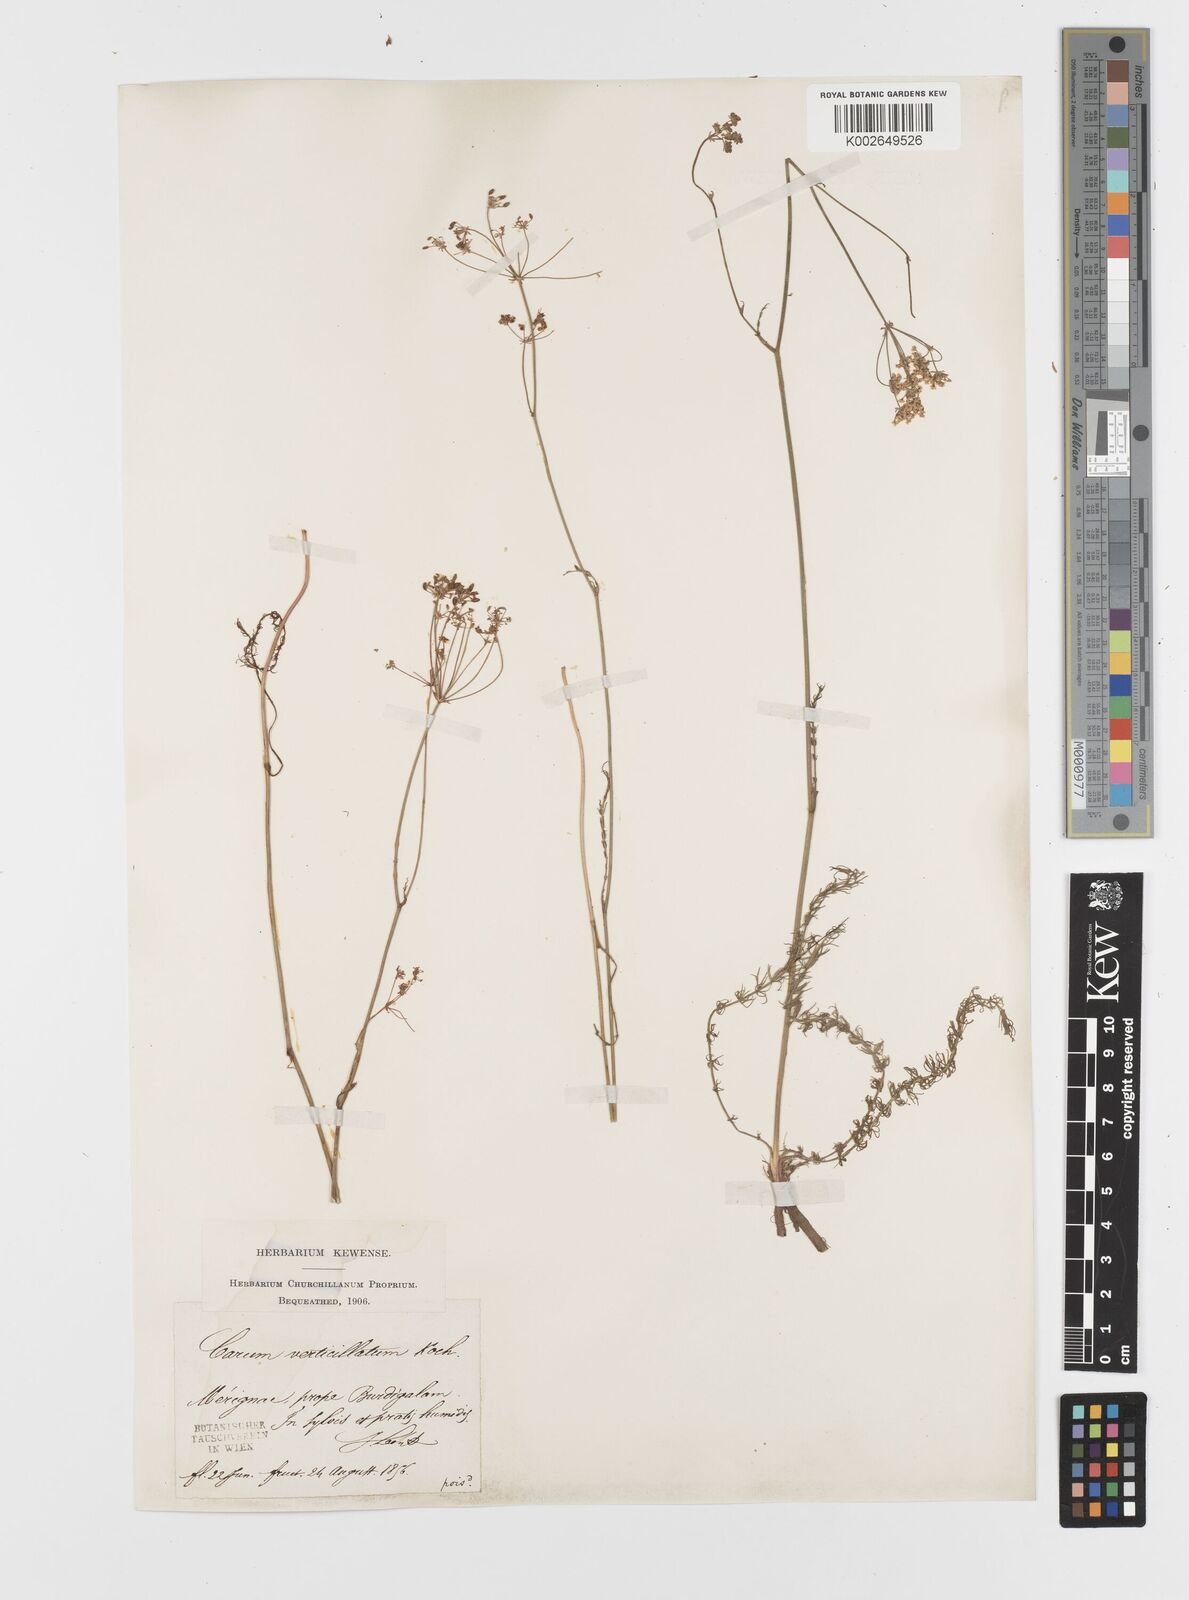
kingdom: Plantae
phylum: Tracheophyta
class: Magnoliopsida
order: Apiales
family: Apiaceae
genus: Trocdaris
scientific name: Trocdaris verticillatum
